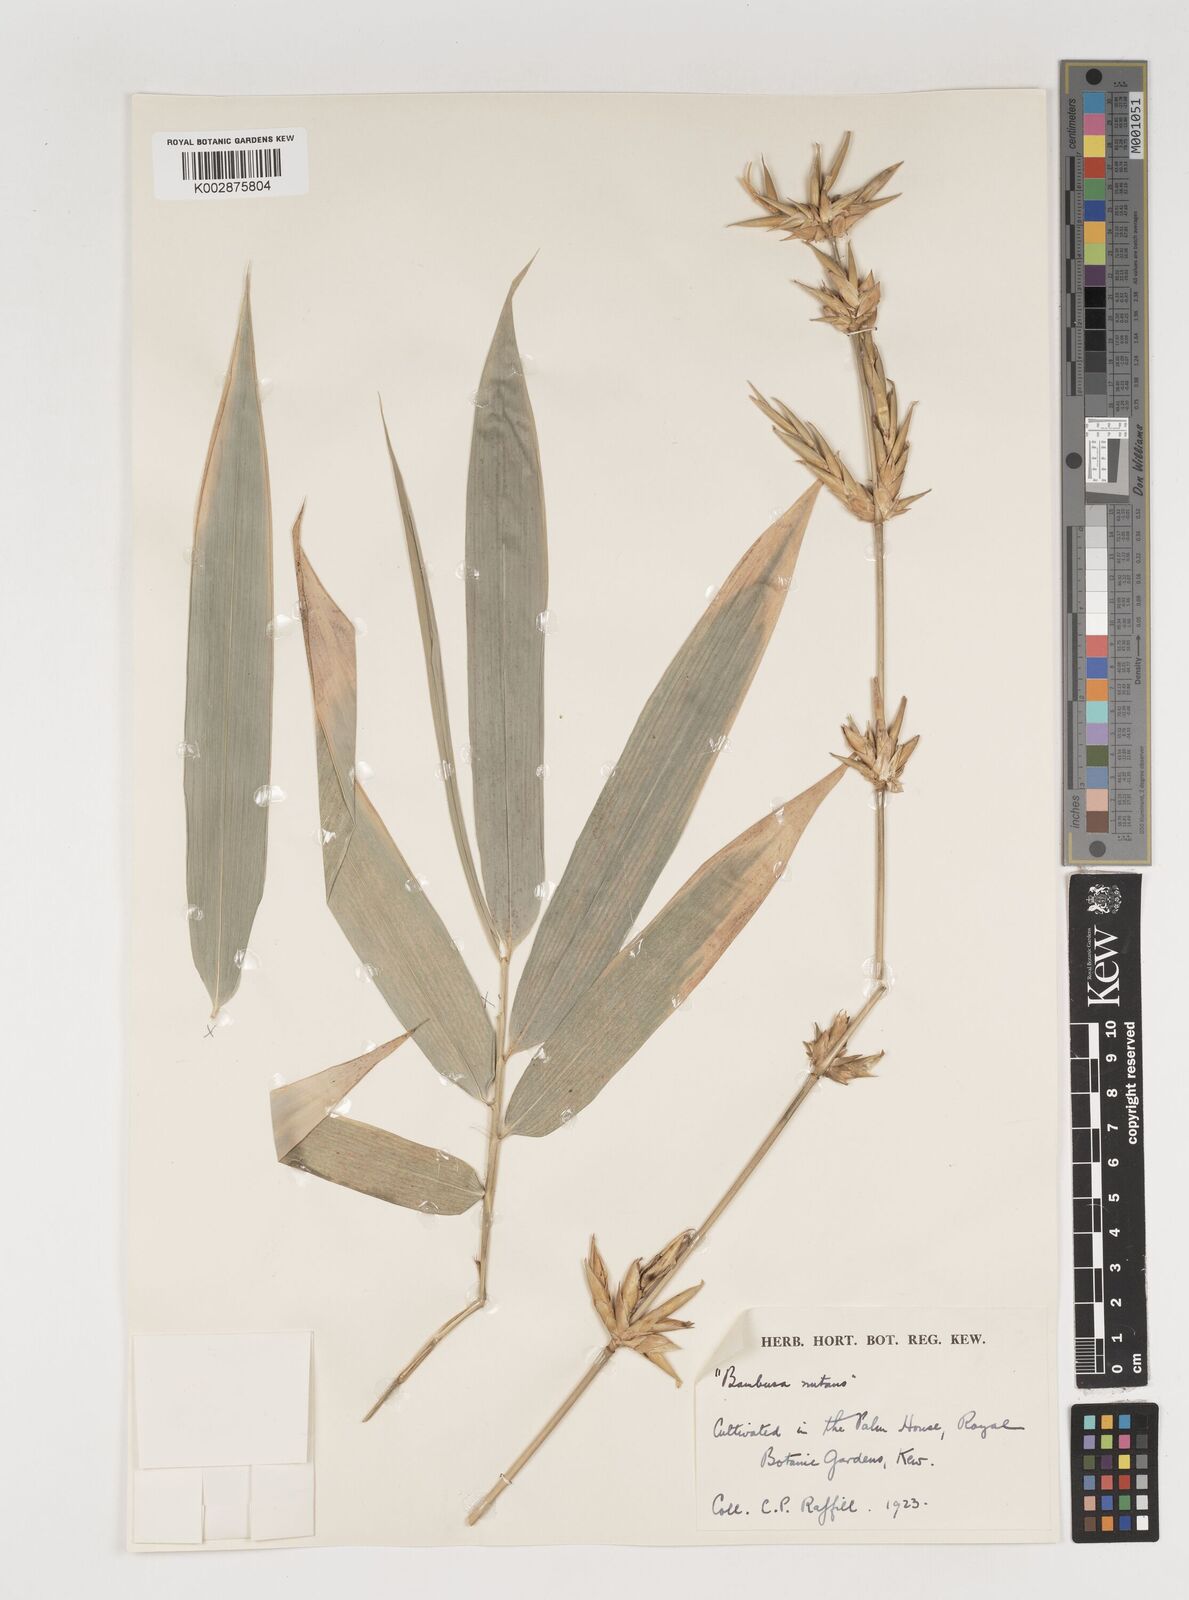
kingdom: Plantae
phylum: Tracheophyta
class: Liliopsida
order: Poales
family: Poaceae
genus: Bambusa
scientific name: Bambusa nutans
